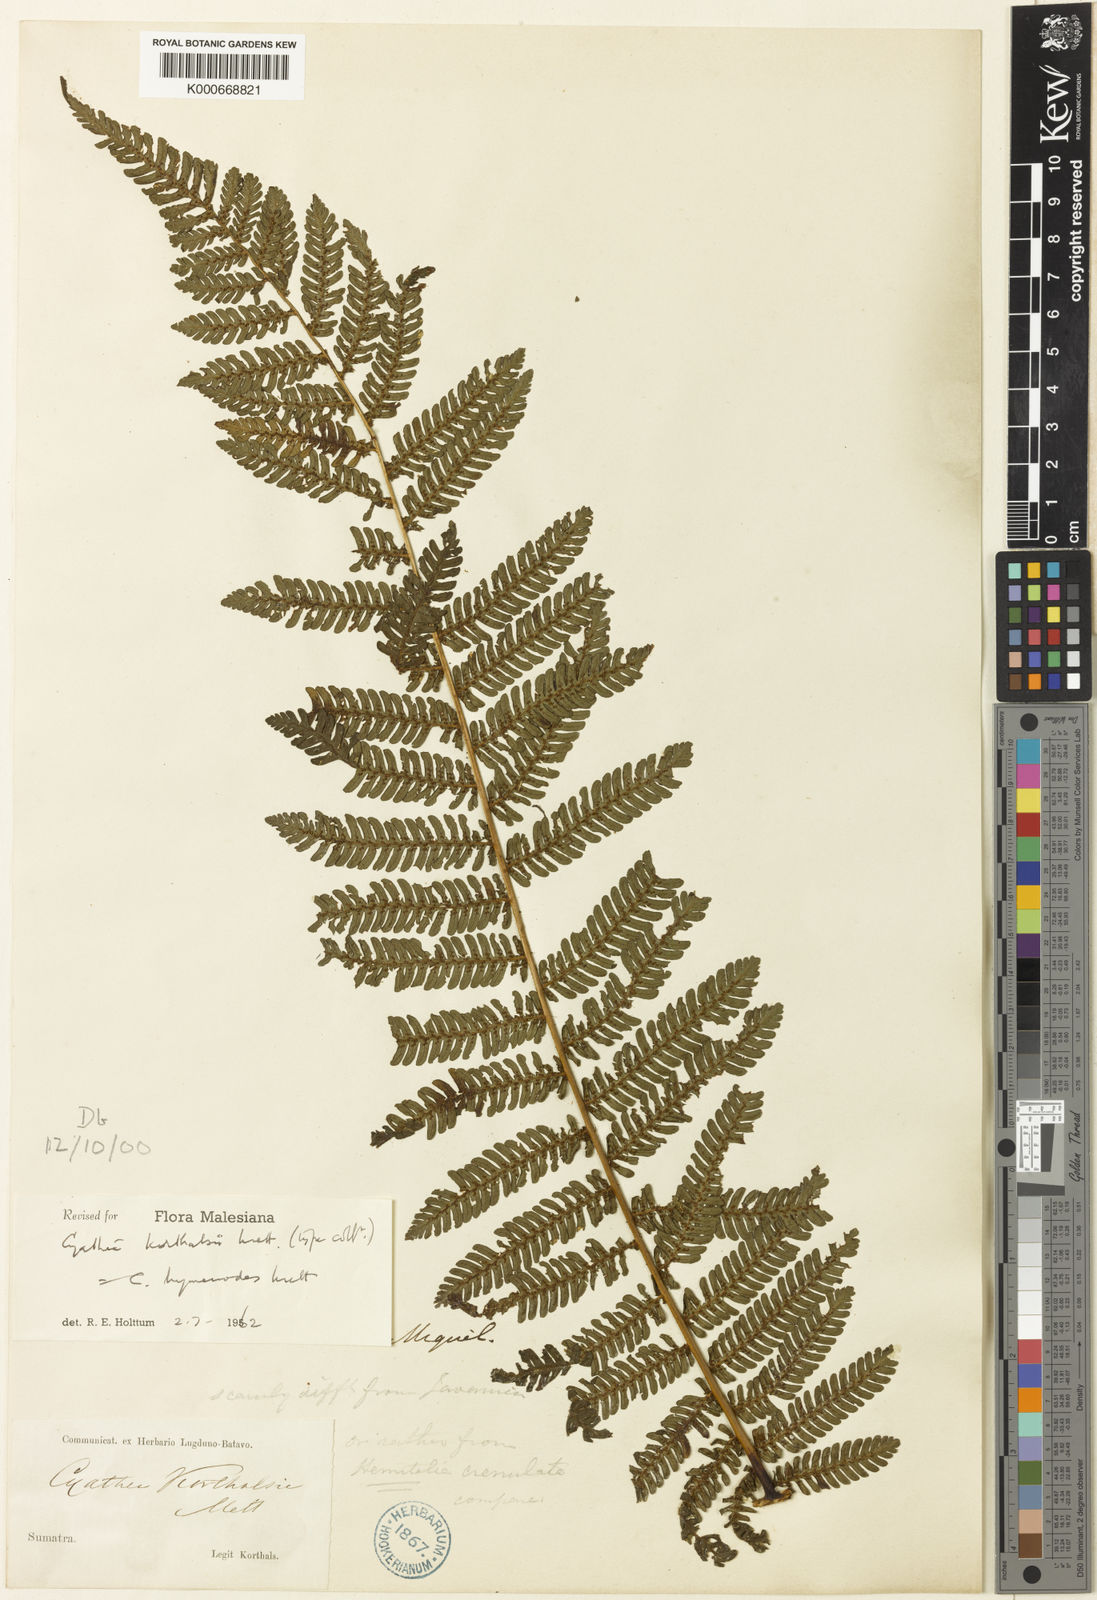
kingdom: Plantae
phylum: Tracheophyta
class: Polypodiopsida
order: Cyatheales
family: Cyatheaceae
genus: Alsophila
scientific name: Alsophila hymenodes
